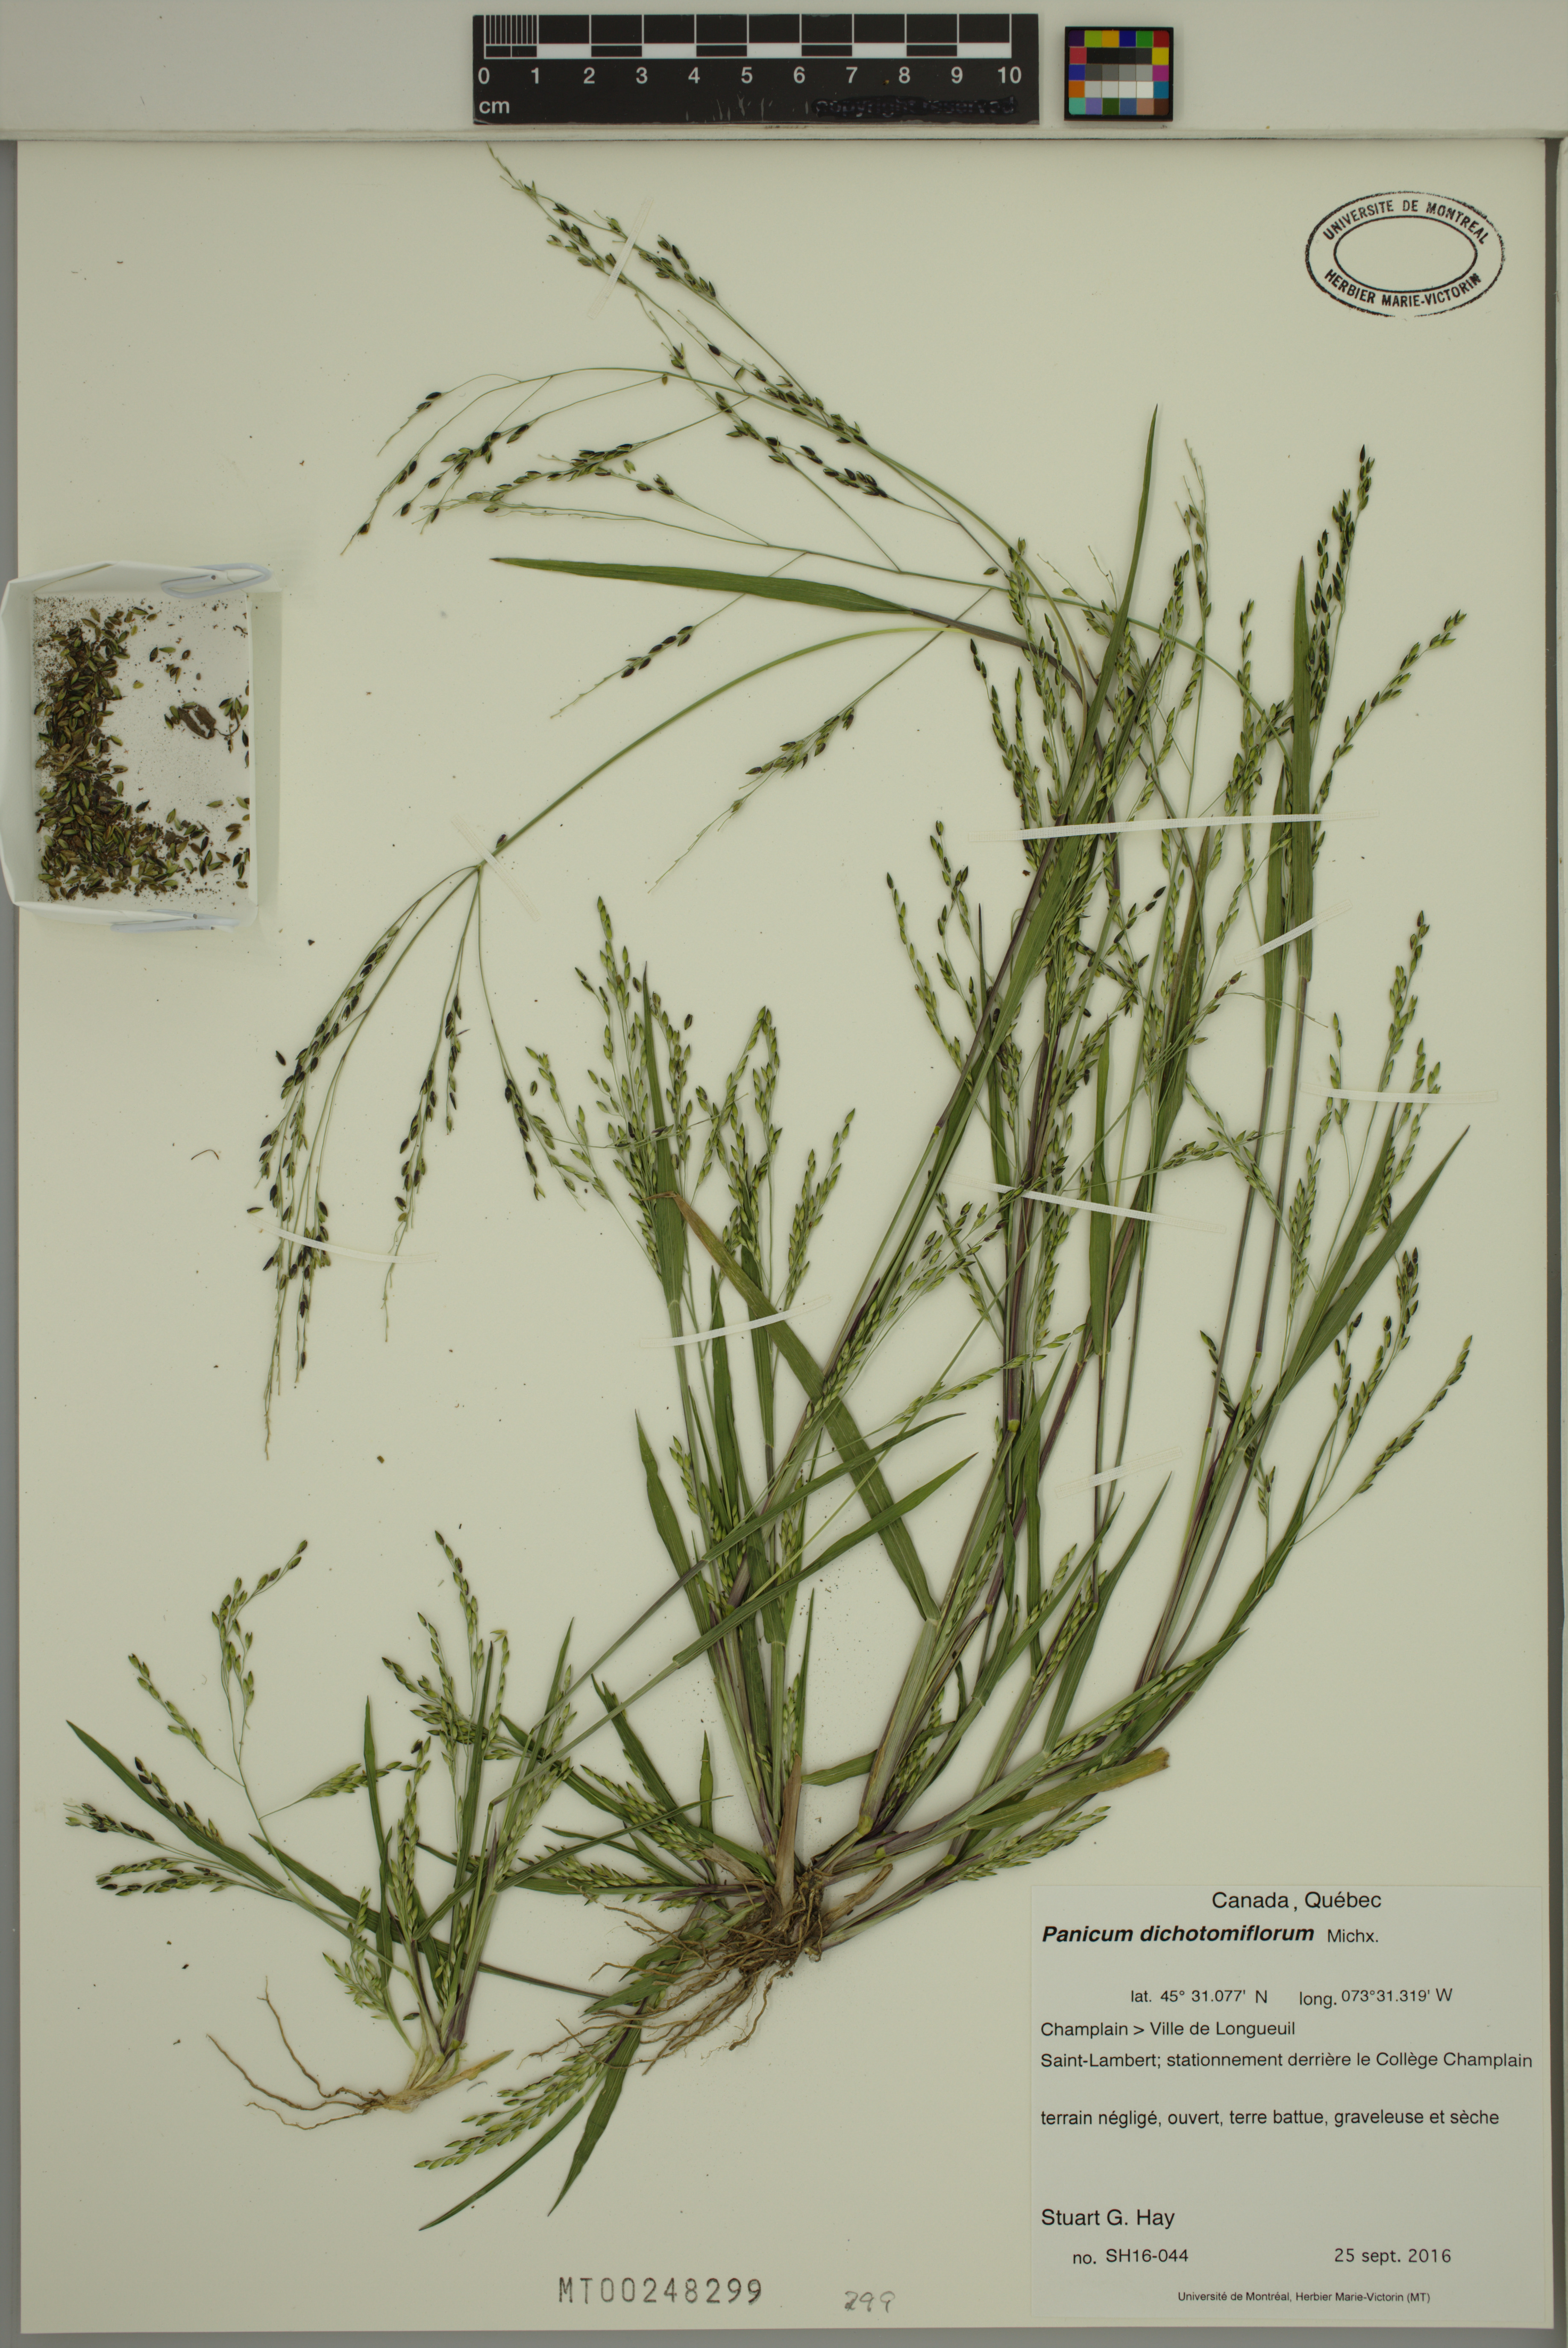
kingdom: Plantae
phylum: Tracheophyta
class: Liliopsida
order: Poales
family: Poaceae
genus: Panicum
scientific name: Panicum dichotomiflorum
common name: Autumn millet
